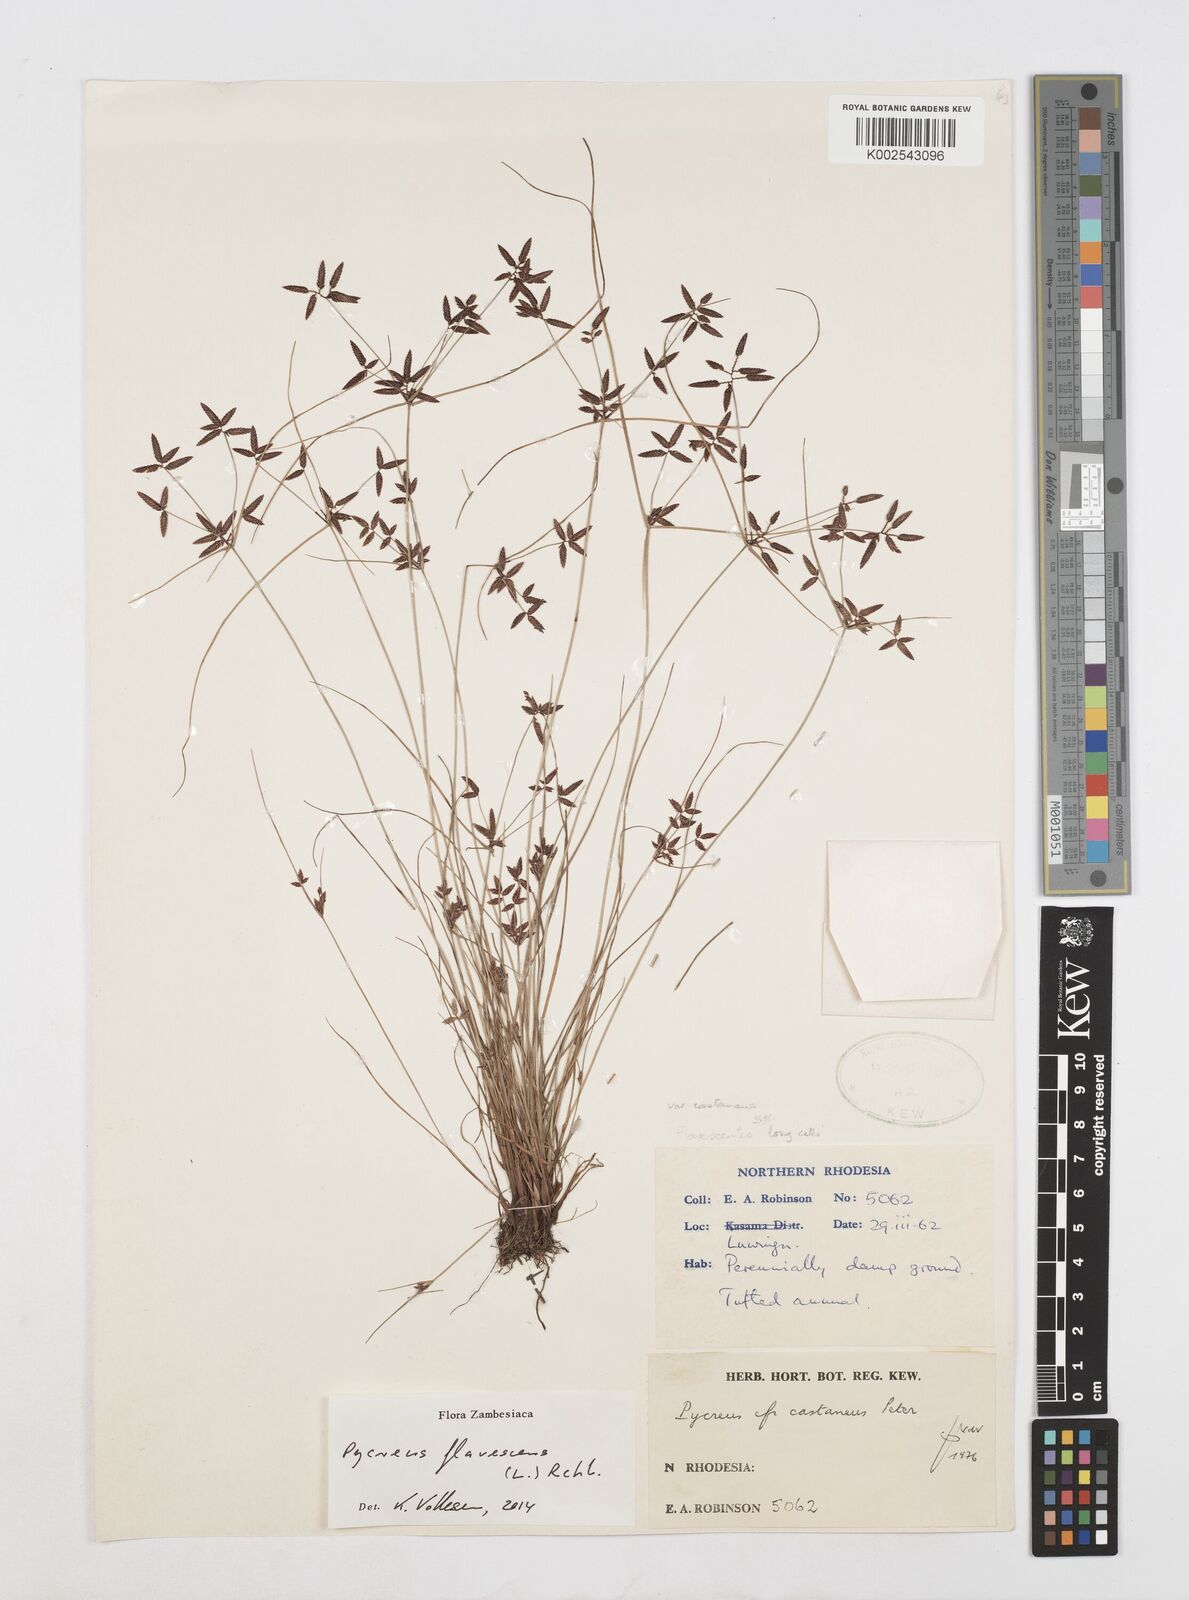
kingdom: Plantae
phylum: Tracheophyta
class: Liliopsida
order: Poales
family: Cyperaceae
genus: Cyperus
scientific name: Cyperus flavescens
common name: Yellow galingale
